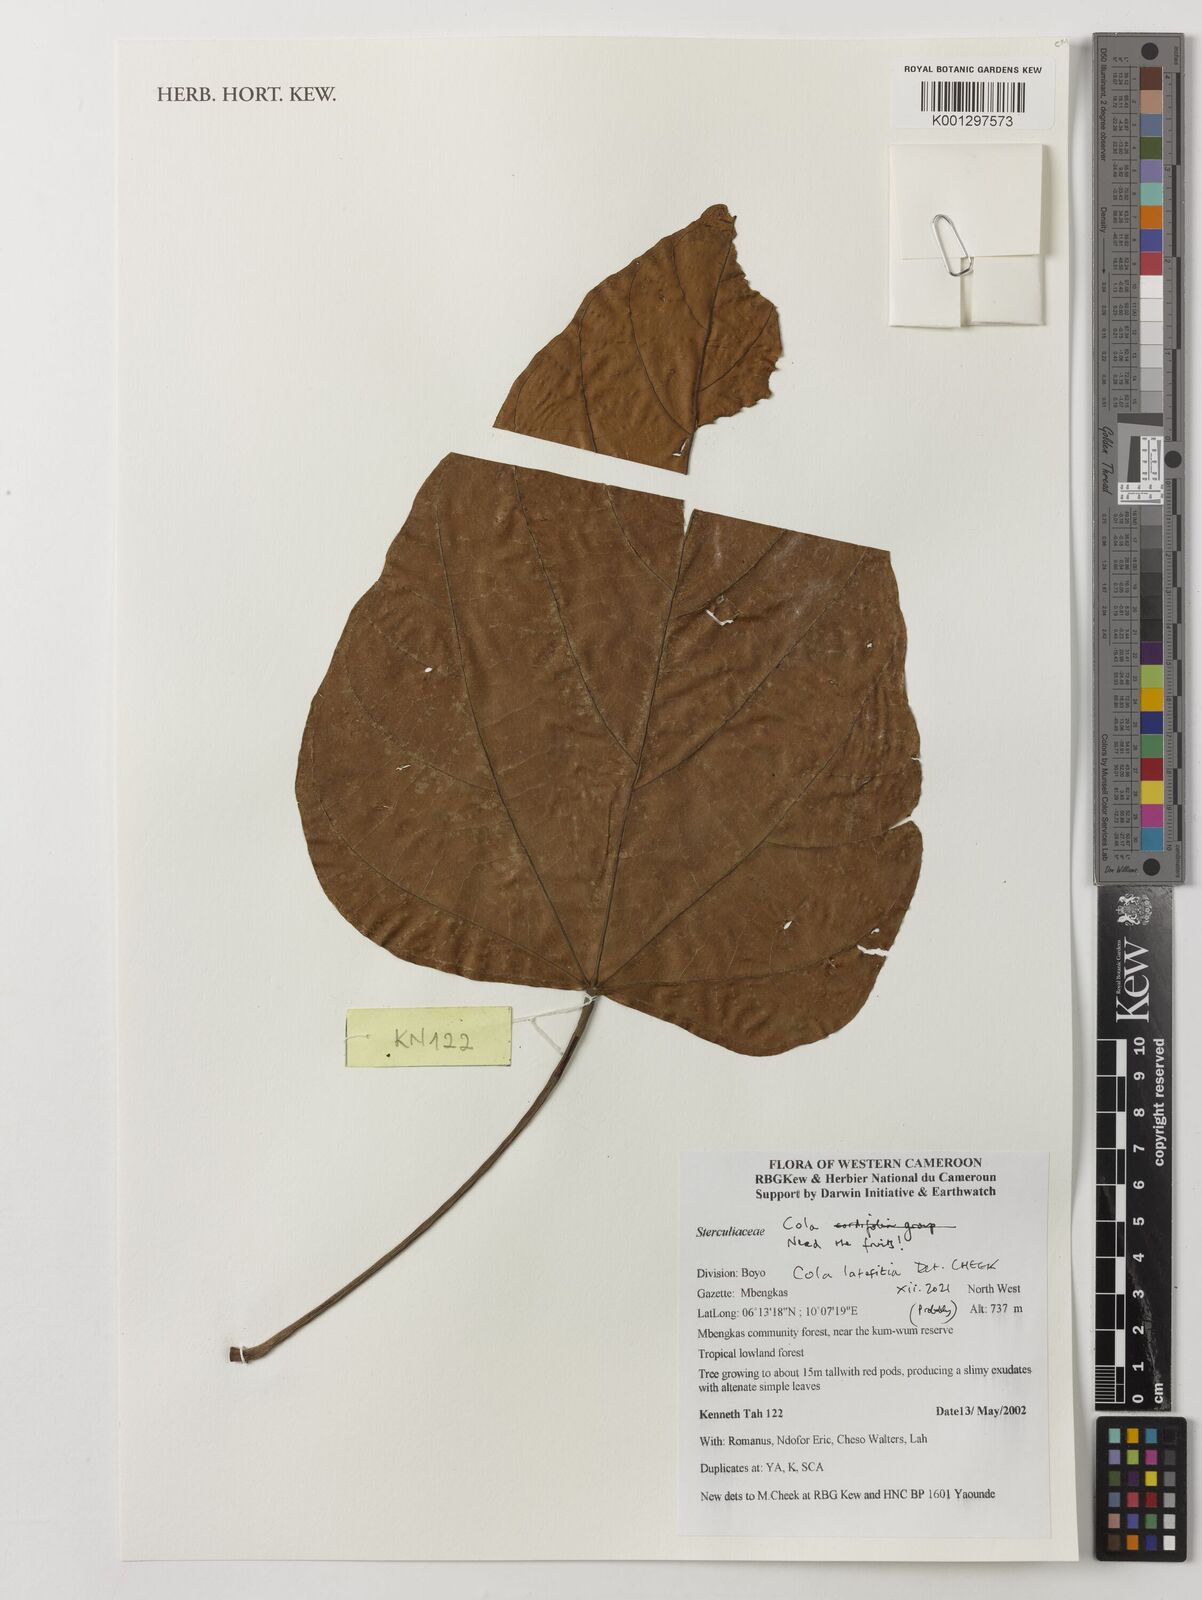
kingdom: Plantae
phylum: Tracheophyta
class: Magnoliopsida
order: Malvales
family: Malvaceae
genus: Cola
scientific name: Cola lateritia
